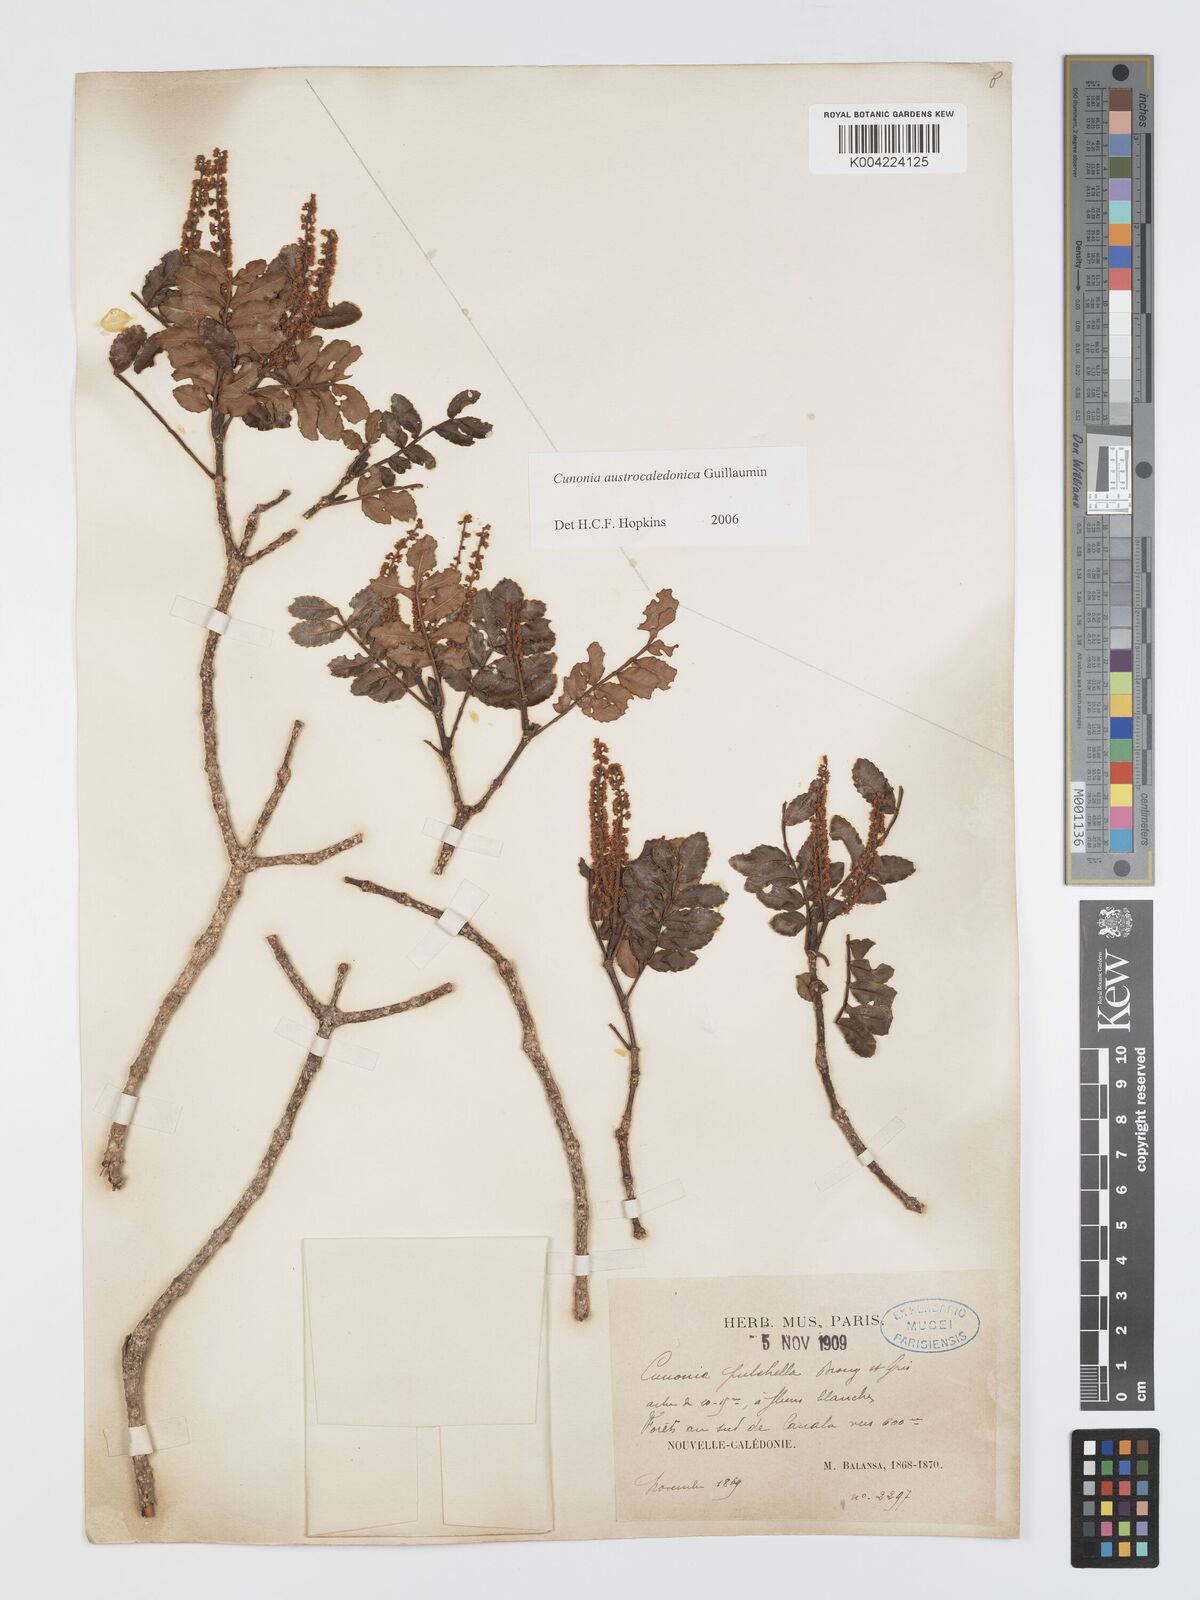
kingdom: Plantae
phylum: Tracheophyta
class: Magnoliopsida
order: Oxalidales
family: Cunoniaceae
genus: Cunonia
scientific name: Cunonia austrocaledonica
